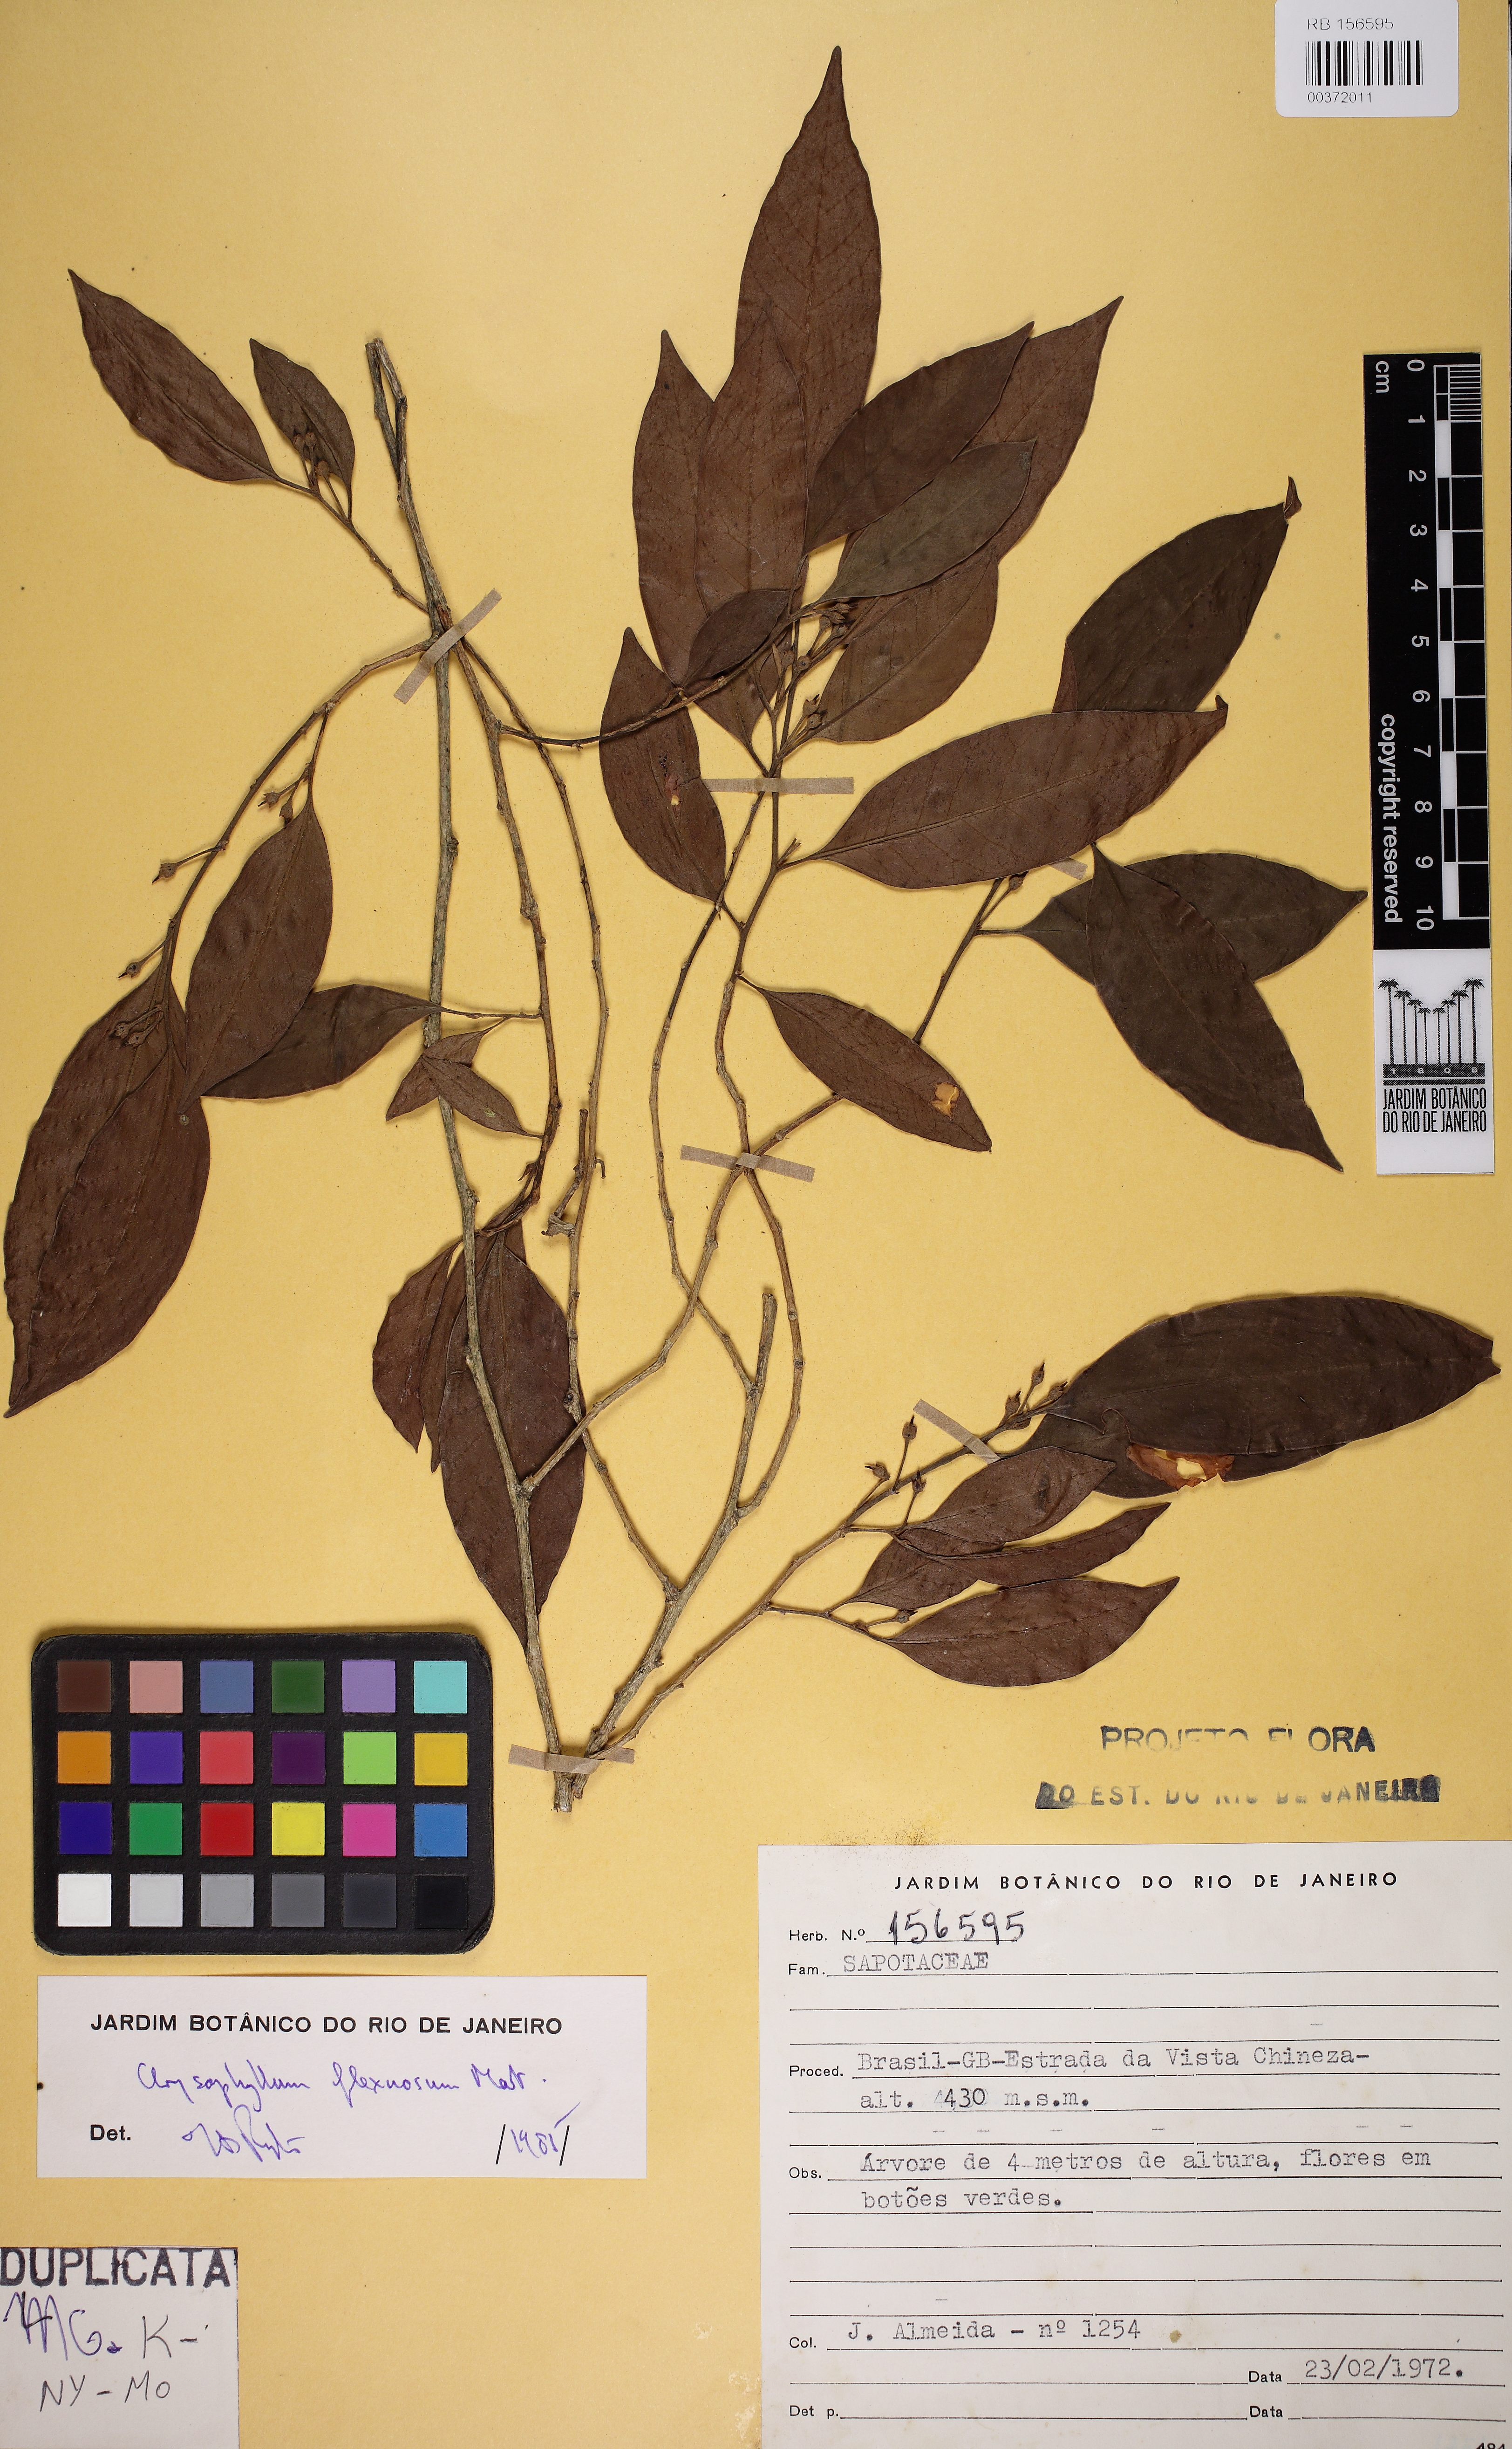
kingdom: Plantae
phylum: Tracheophyta
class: Magnoliopsida
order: Ericales
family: Sapotaceae
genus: Chrysophyllum
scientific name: Chrysophyllum flexuosum
